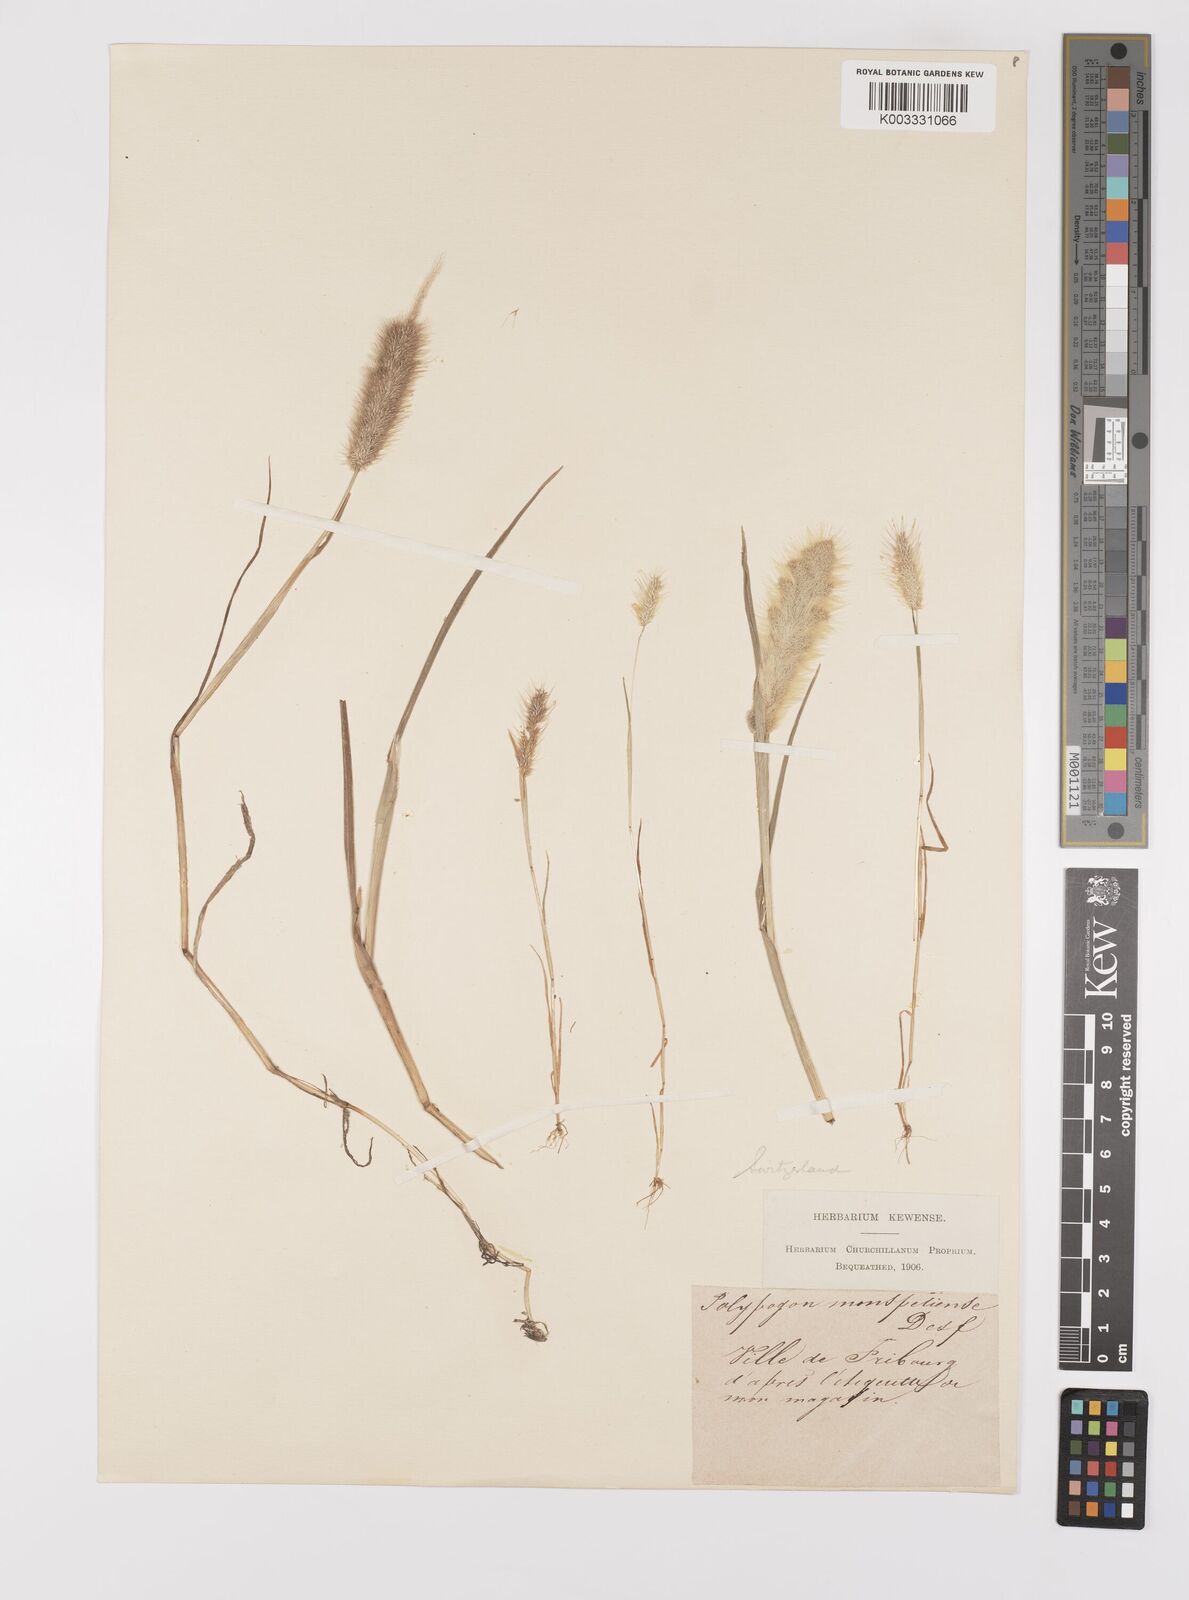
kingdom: Plantae
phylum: Tracheophyta
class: Liliopsida
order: Poales
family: Poaceae
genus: Polypogon
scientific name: Polypogon monspeliensis
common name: Annual rabbitsfoot grass
